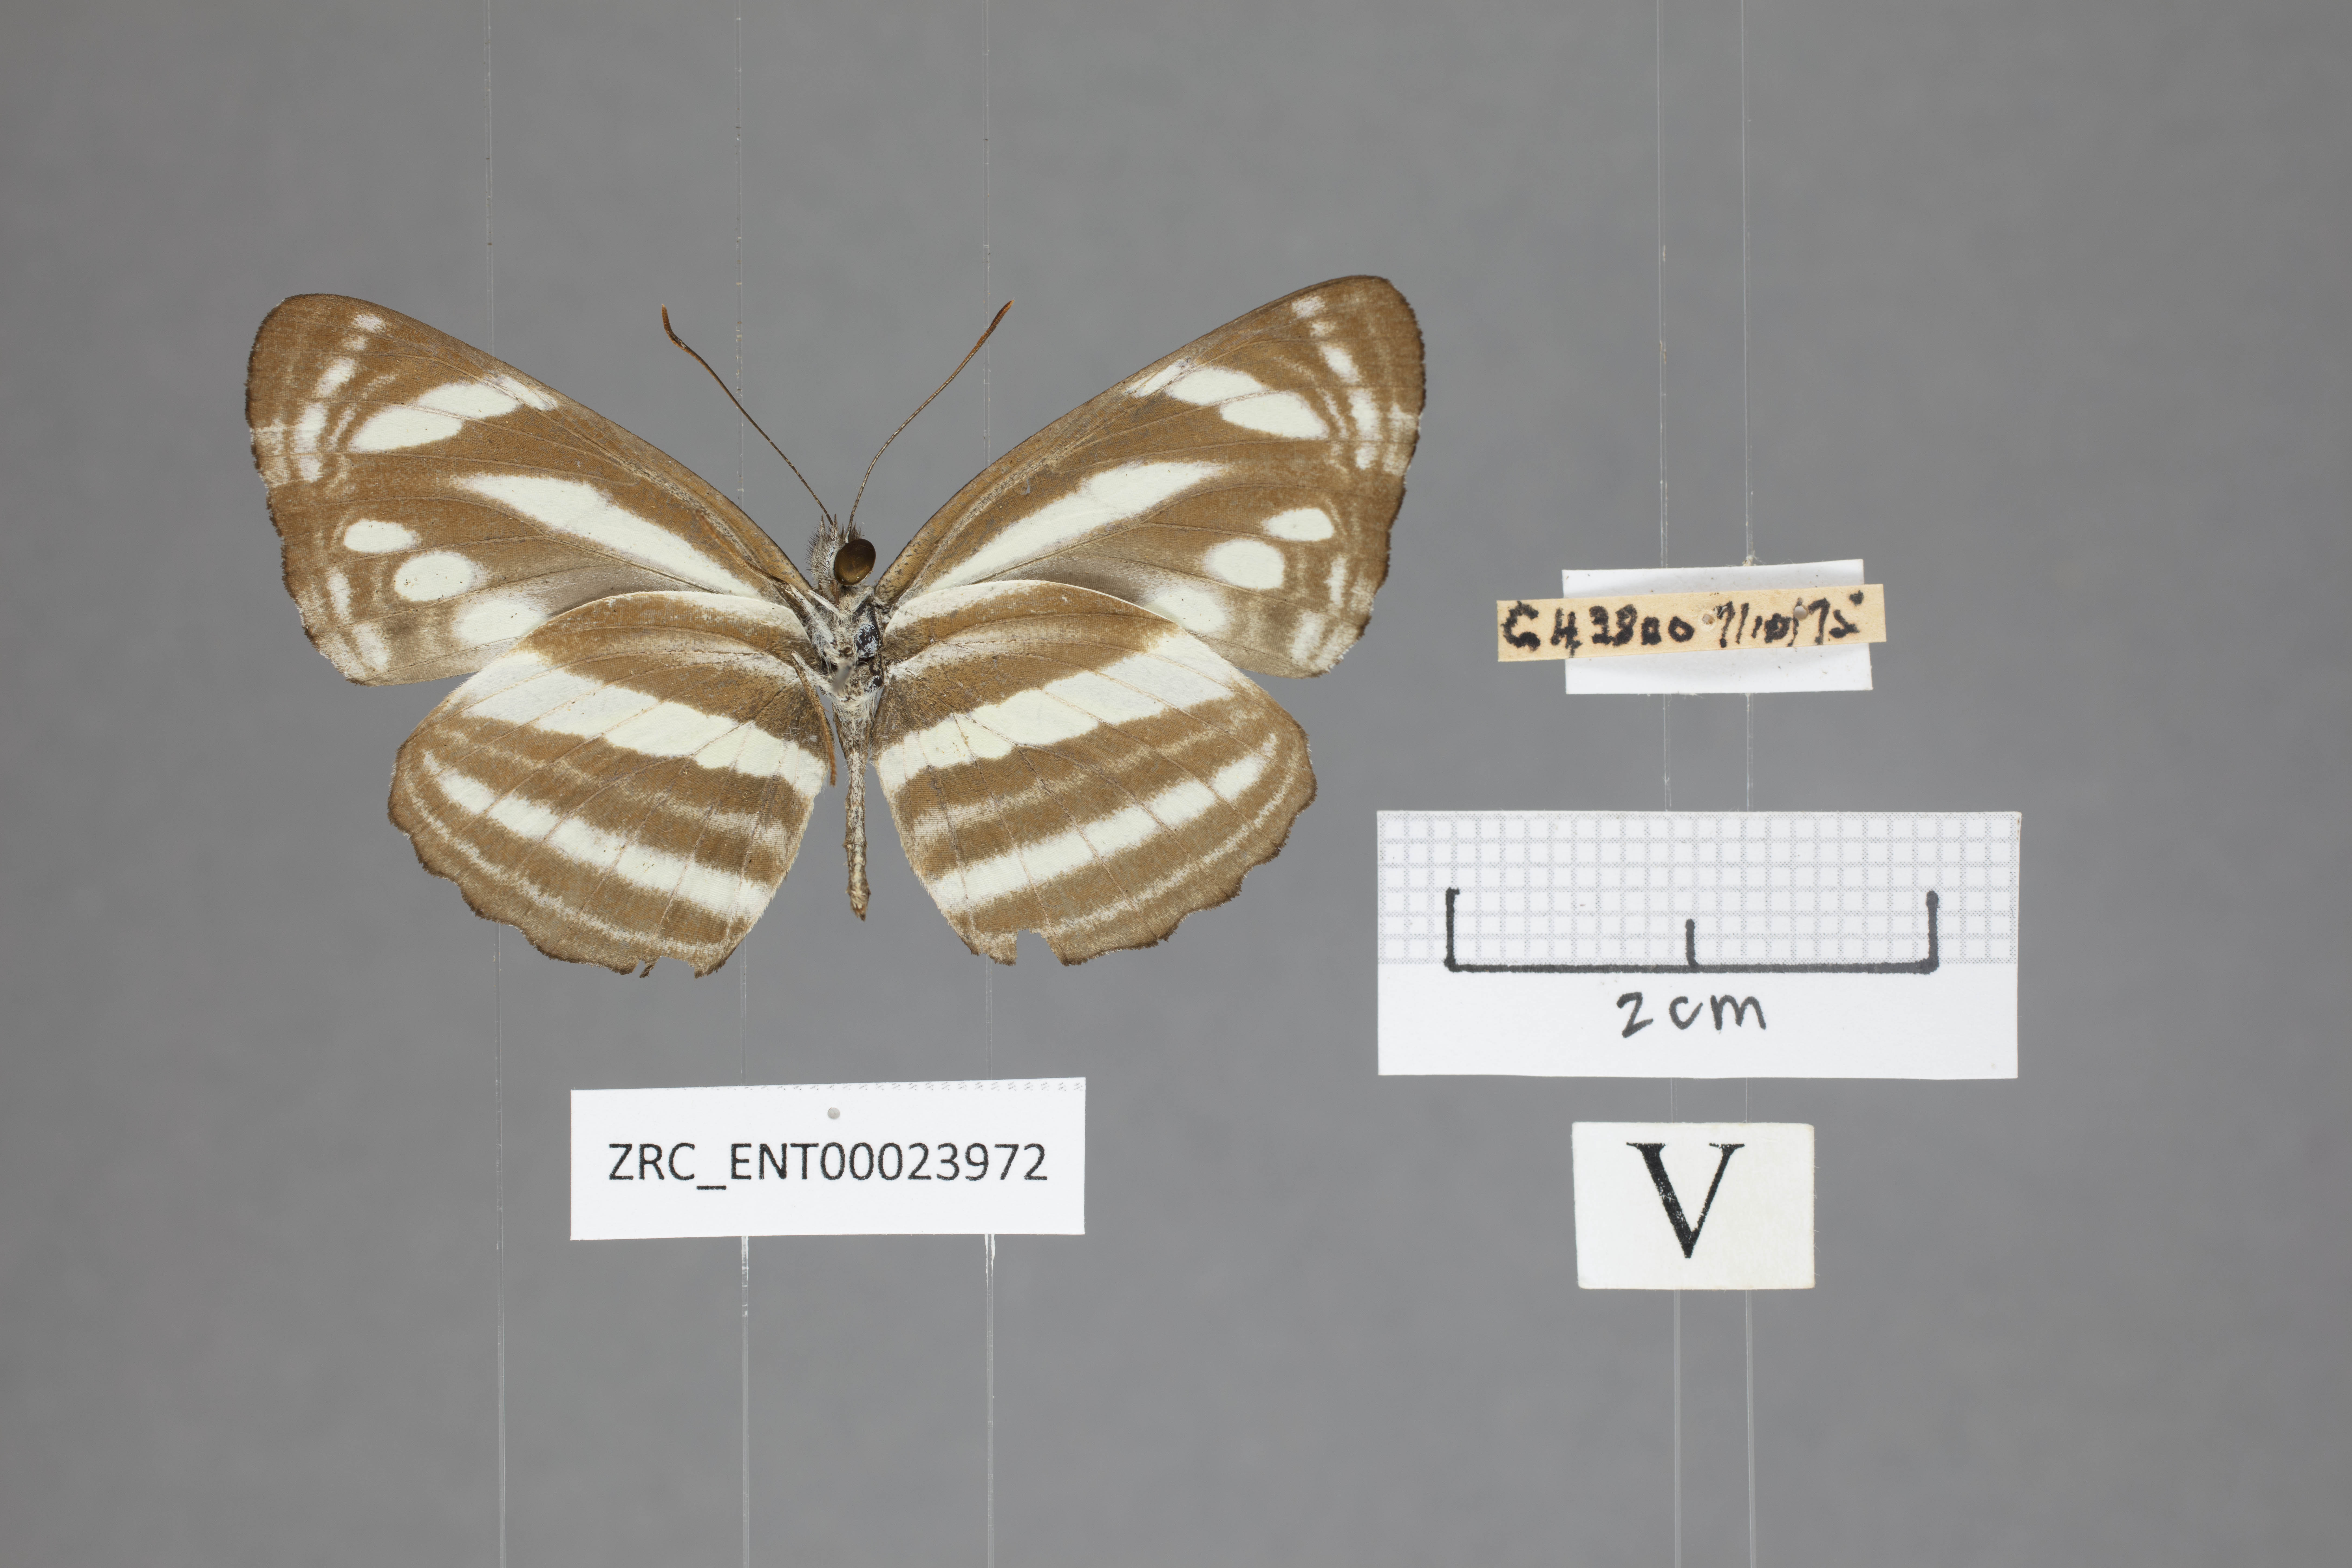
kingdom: Animalia
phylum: Arthropoda
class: Insecta
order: Lepidoptera
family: Nymphalidae
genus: Neptis
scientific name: Neptis clinioides
